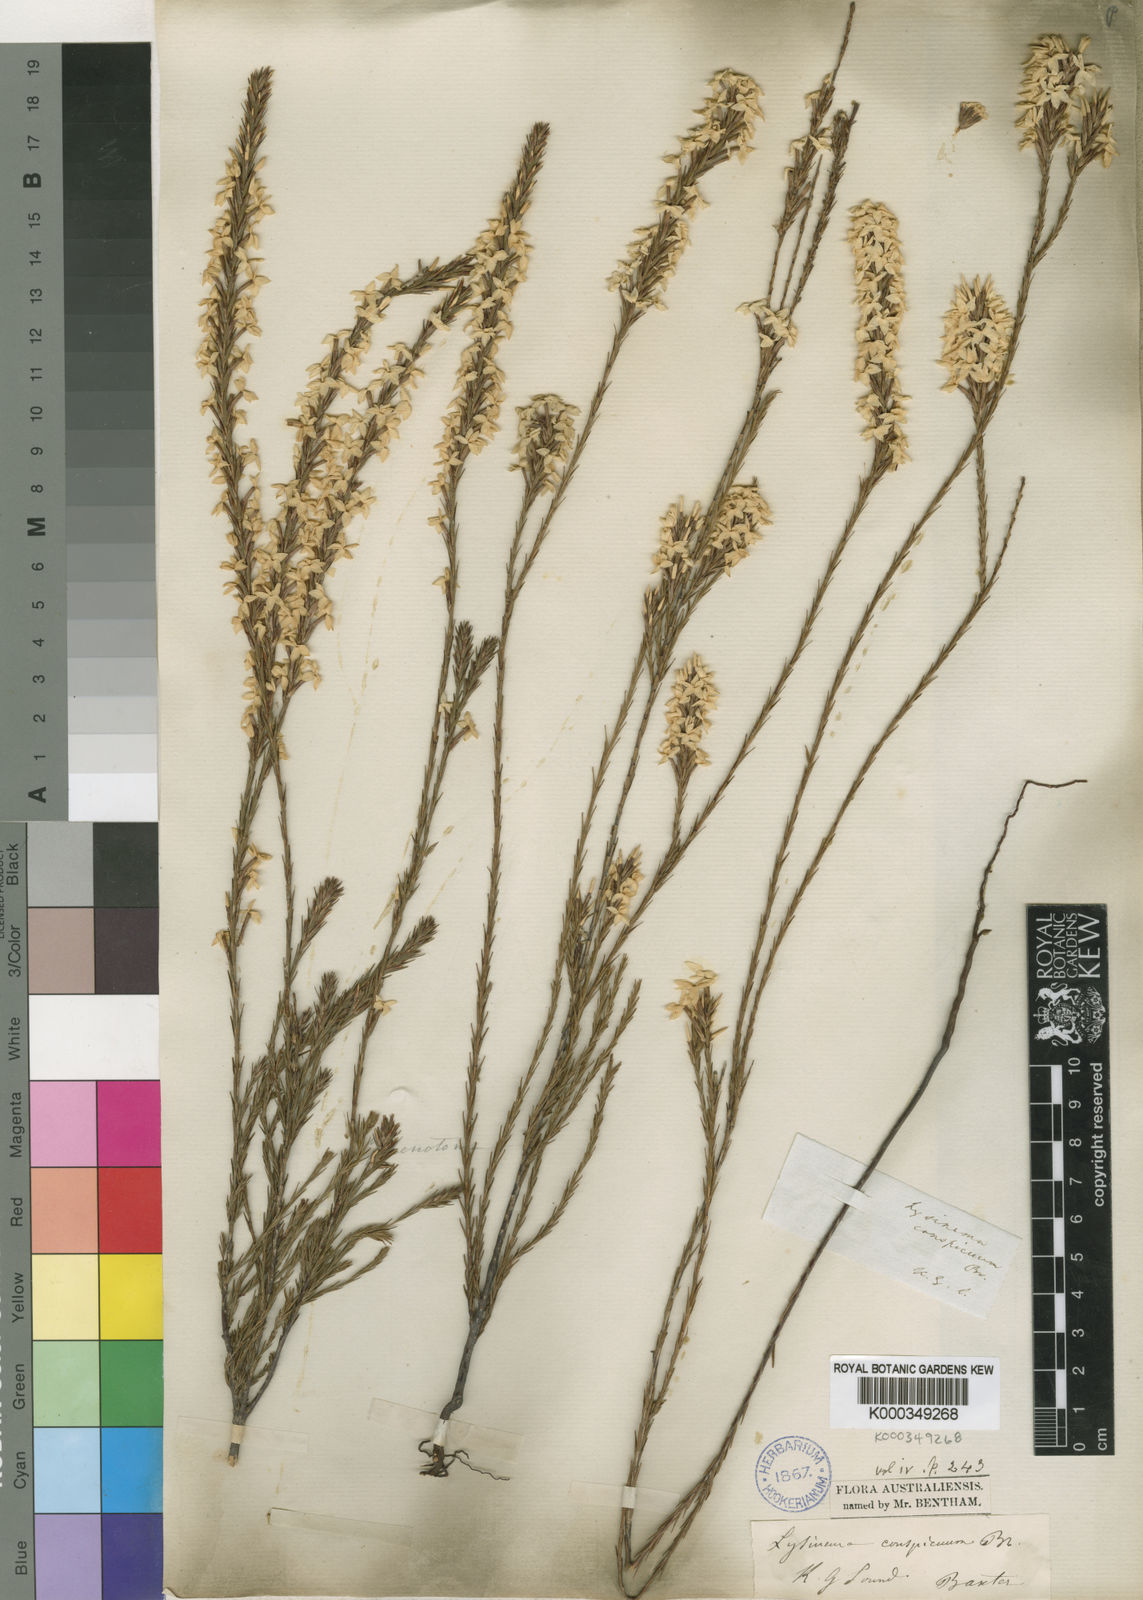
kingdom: Plantae
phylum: Tracheophyta
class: Magnoliopsida
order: Ericales
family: Ericaceae
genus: Lysinema
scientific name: Lysinema conspicuum
